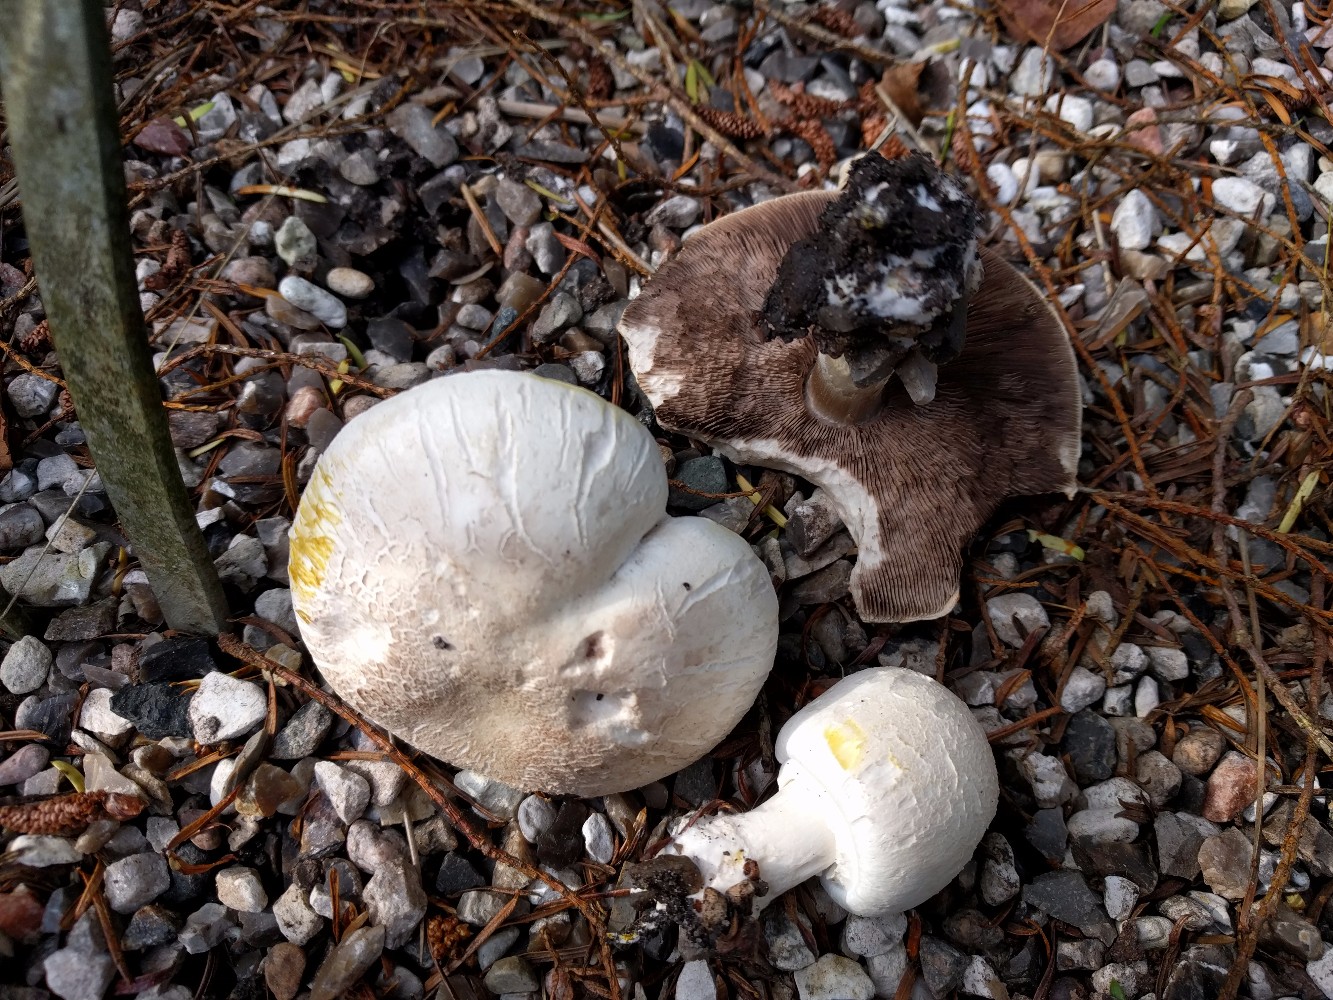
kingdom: Fungi
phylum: Basidiomycota
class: Agaricomycetes
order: Agaricales
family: Agaricaceae
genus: Agaricus
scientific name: Agaricus xanthodermus
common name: karbol-champignon
